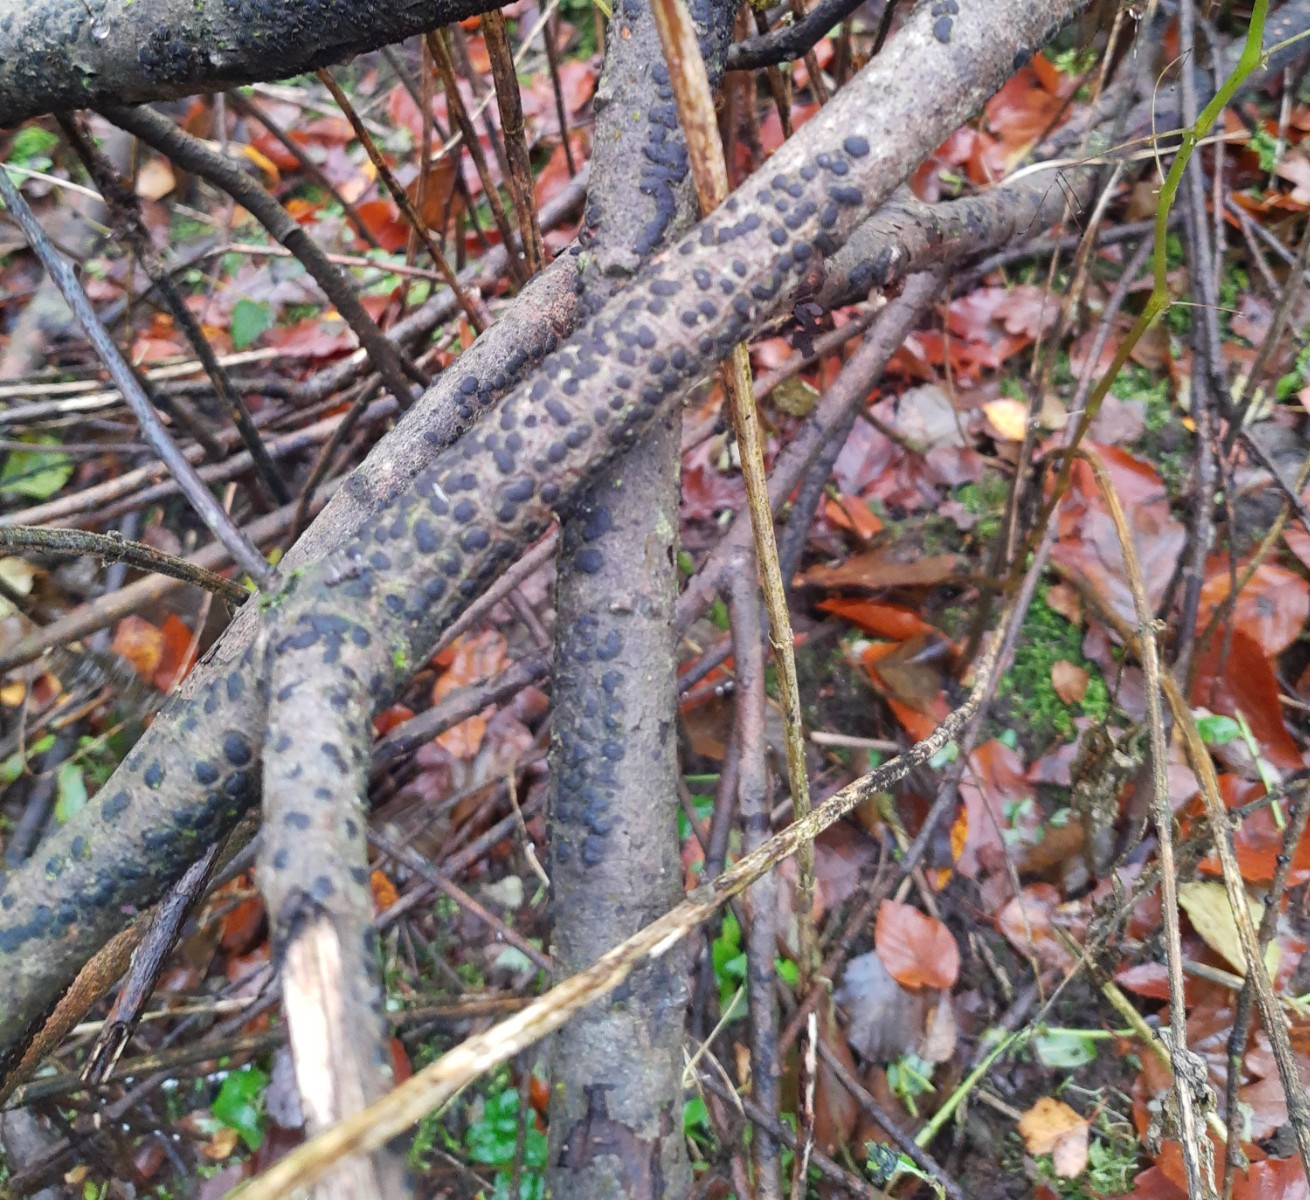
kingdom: Fungi
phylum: Ascomycota
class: Sordariomycetes
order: Xylariales
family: Diatrypaceae
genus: Diatrype
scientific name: Diatrype bullata
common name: pile-kulskorpe
